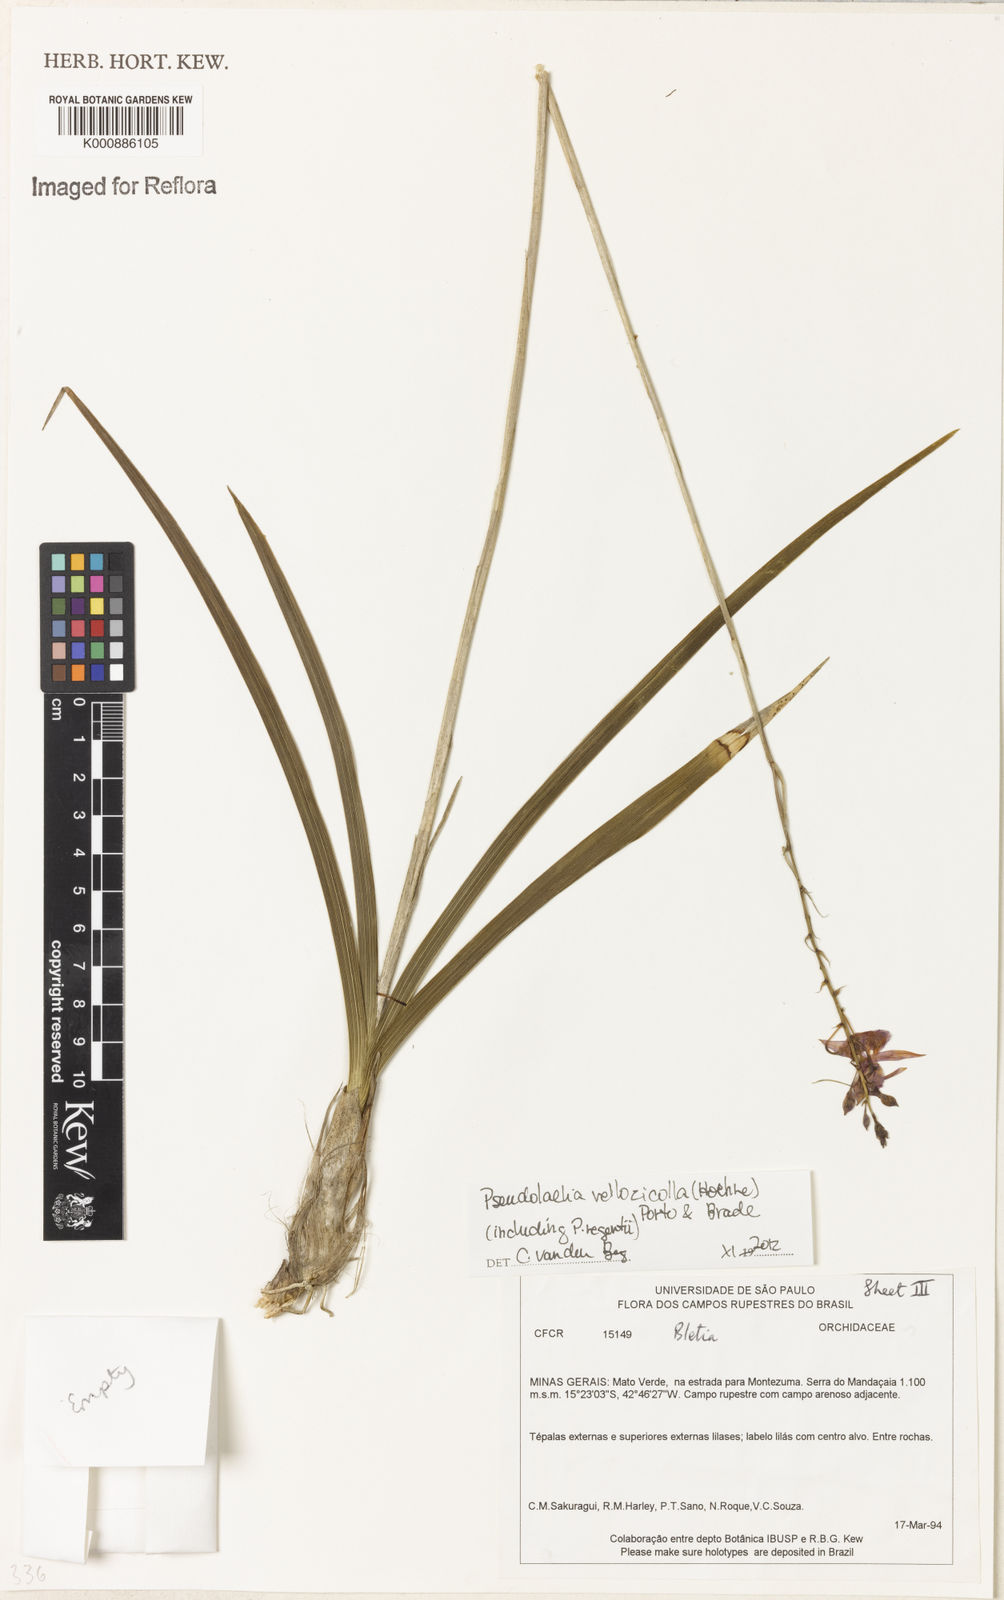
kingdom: Plantae
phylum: Tracheophyta
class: Liliopsida
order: Asparagales
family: Orchidaceae
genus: Pseudolaelia
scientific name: Pseudolaelia vellozicola
